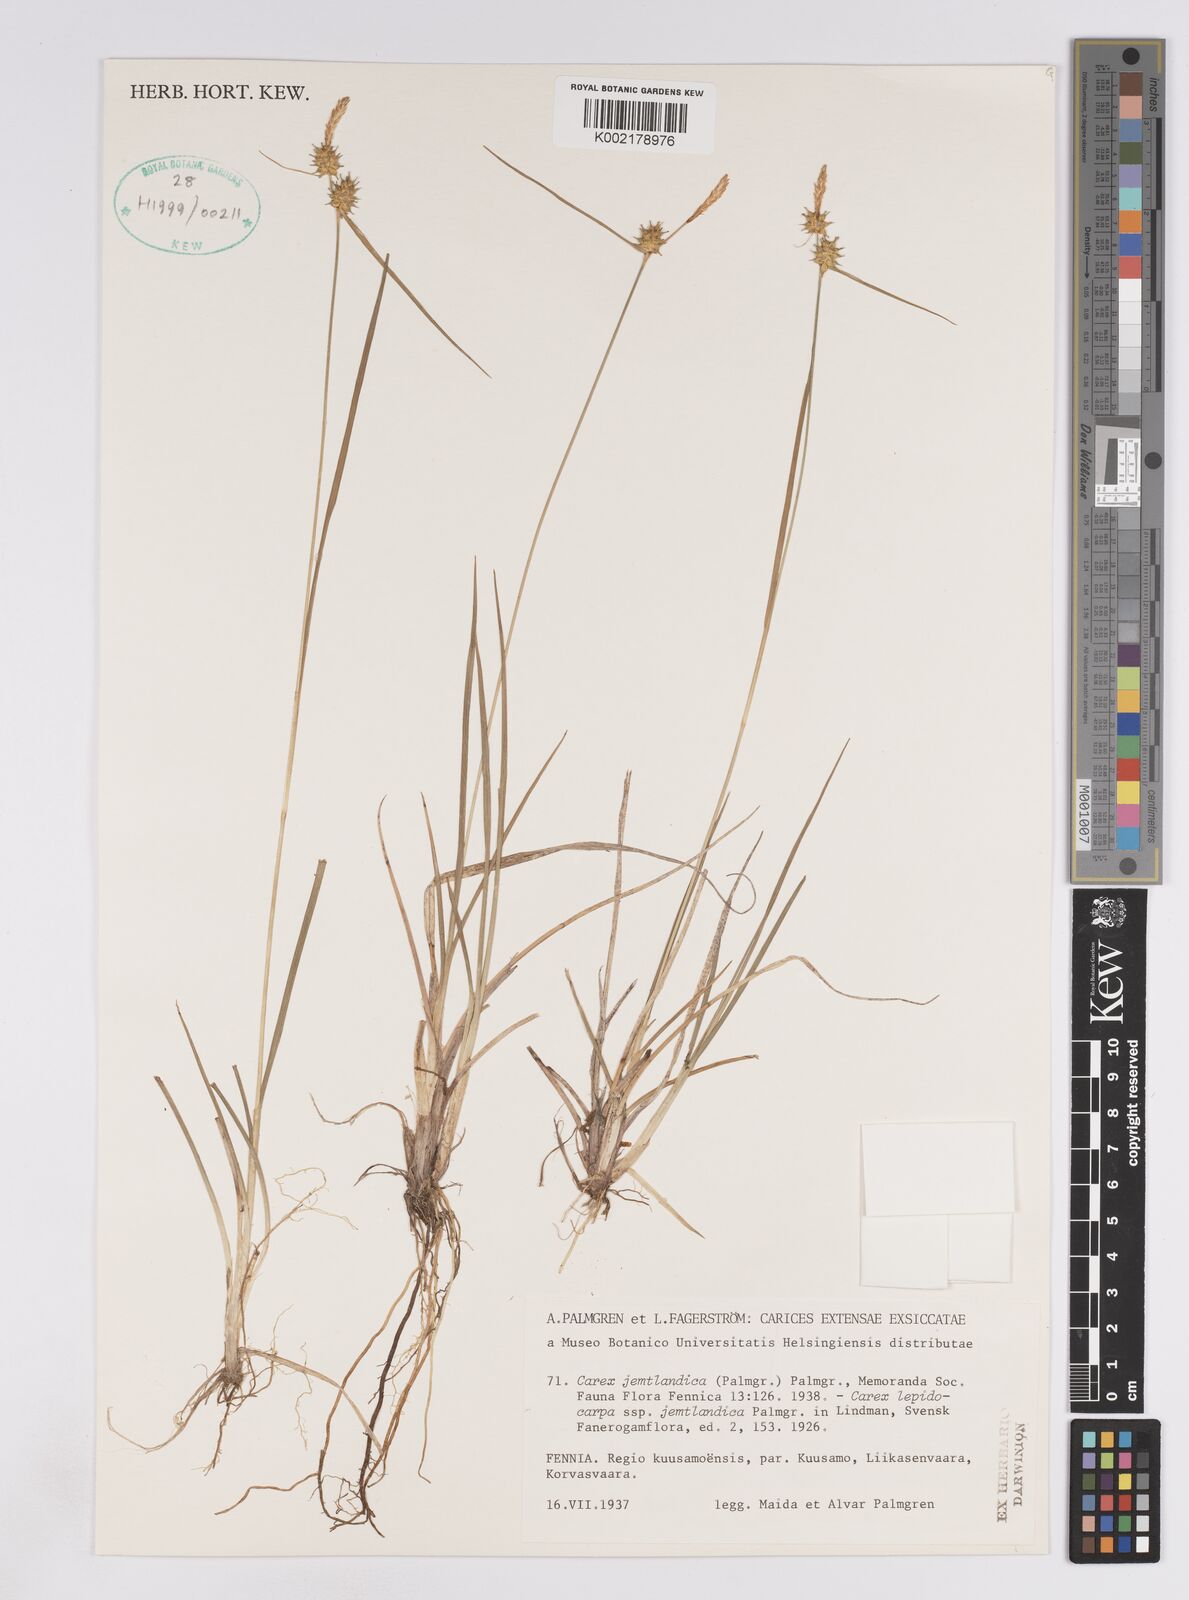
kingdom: Plantae
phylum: Tracheophyta
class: Liliopsida
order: Poales
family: Cyperaceae
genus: Carex
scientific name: Carex lepidocarpa
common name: Long-stalked yellow-sedge
